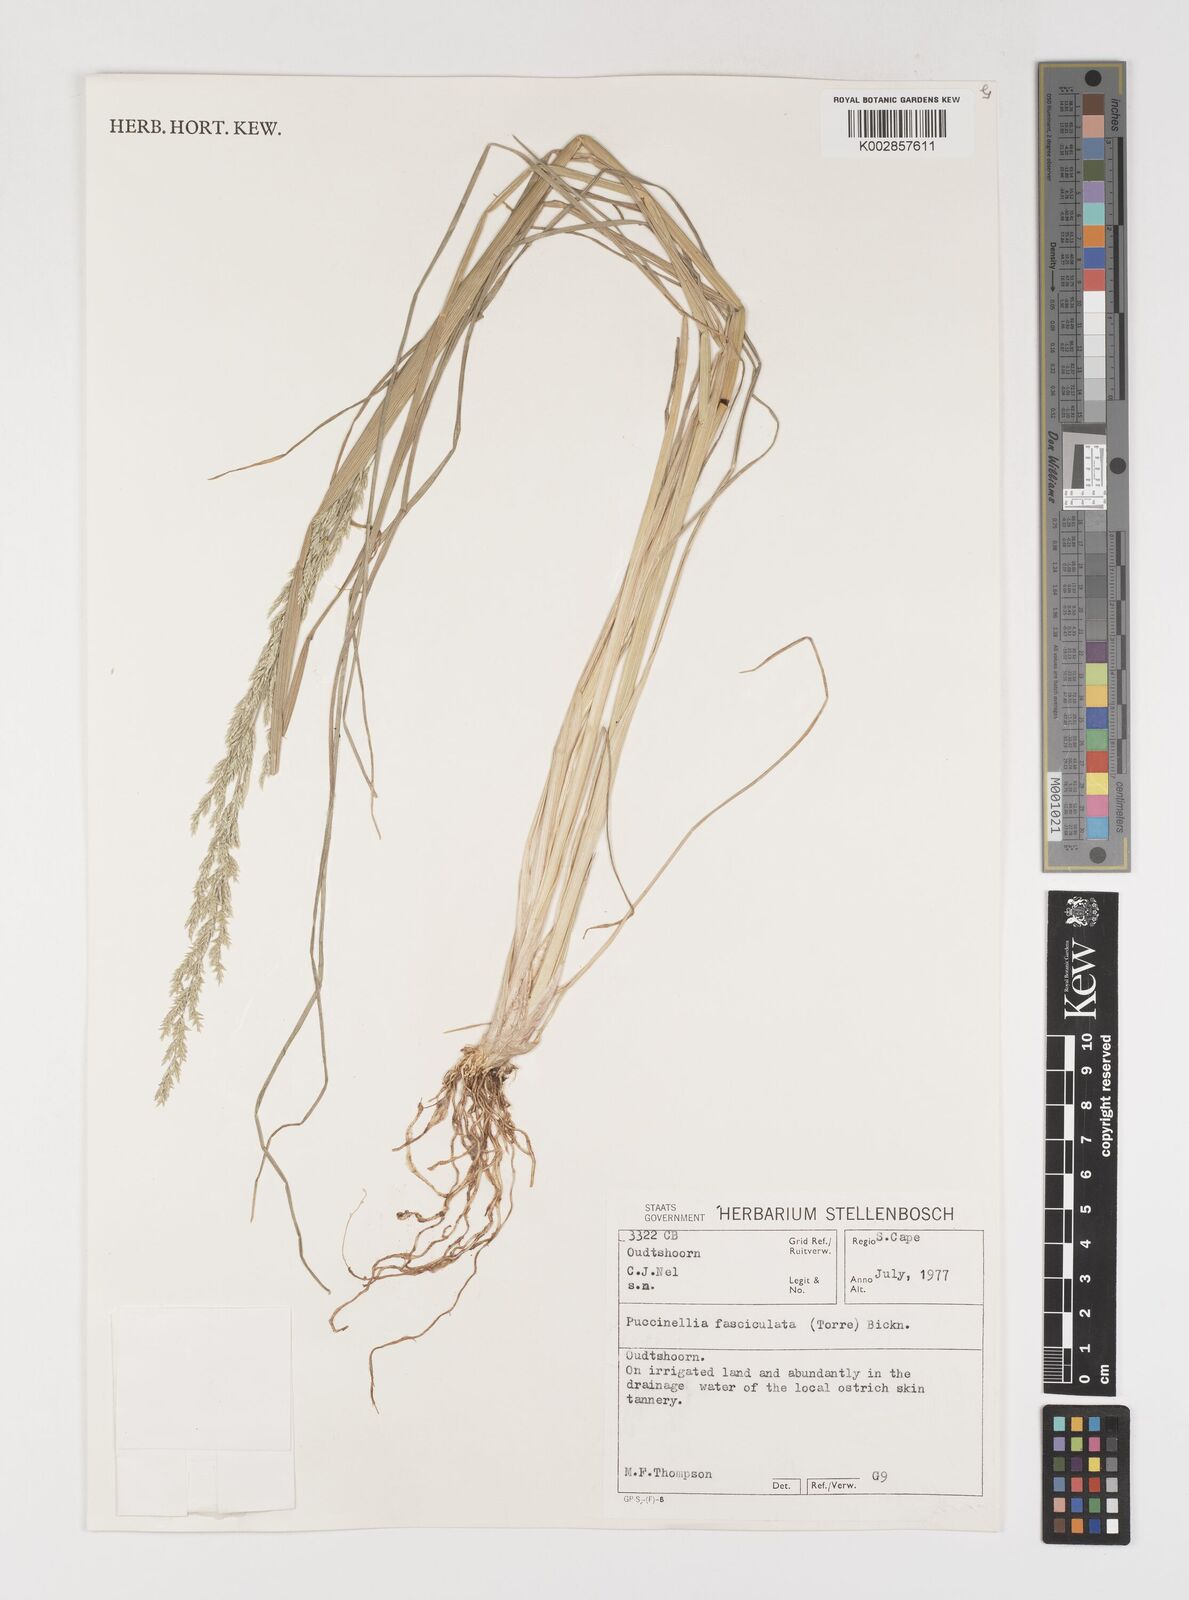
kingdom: Plantae
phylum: Tracheophyta
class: Liliopsida
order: Poales
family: Poaceae
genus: Puccinellia
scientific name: Puccinellia fasciculata
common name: Borrer's saltmarsh-grass
